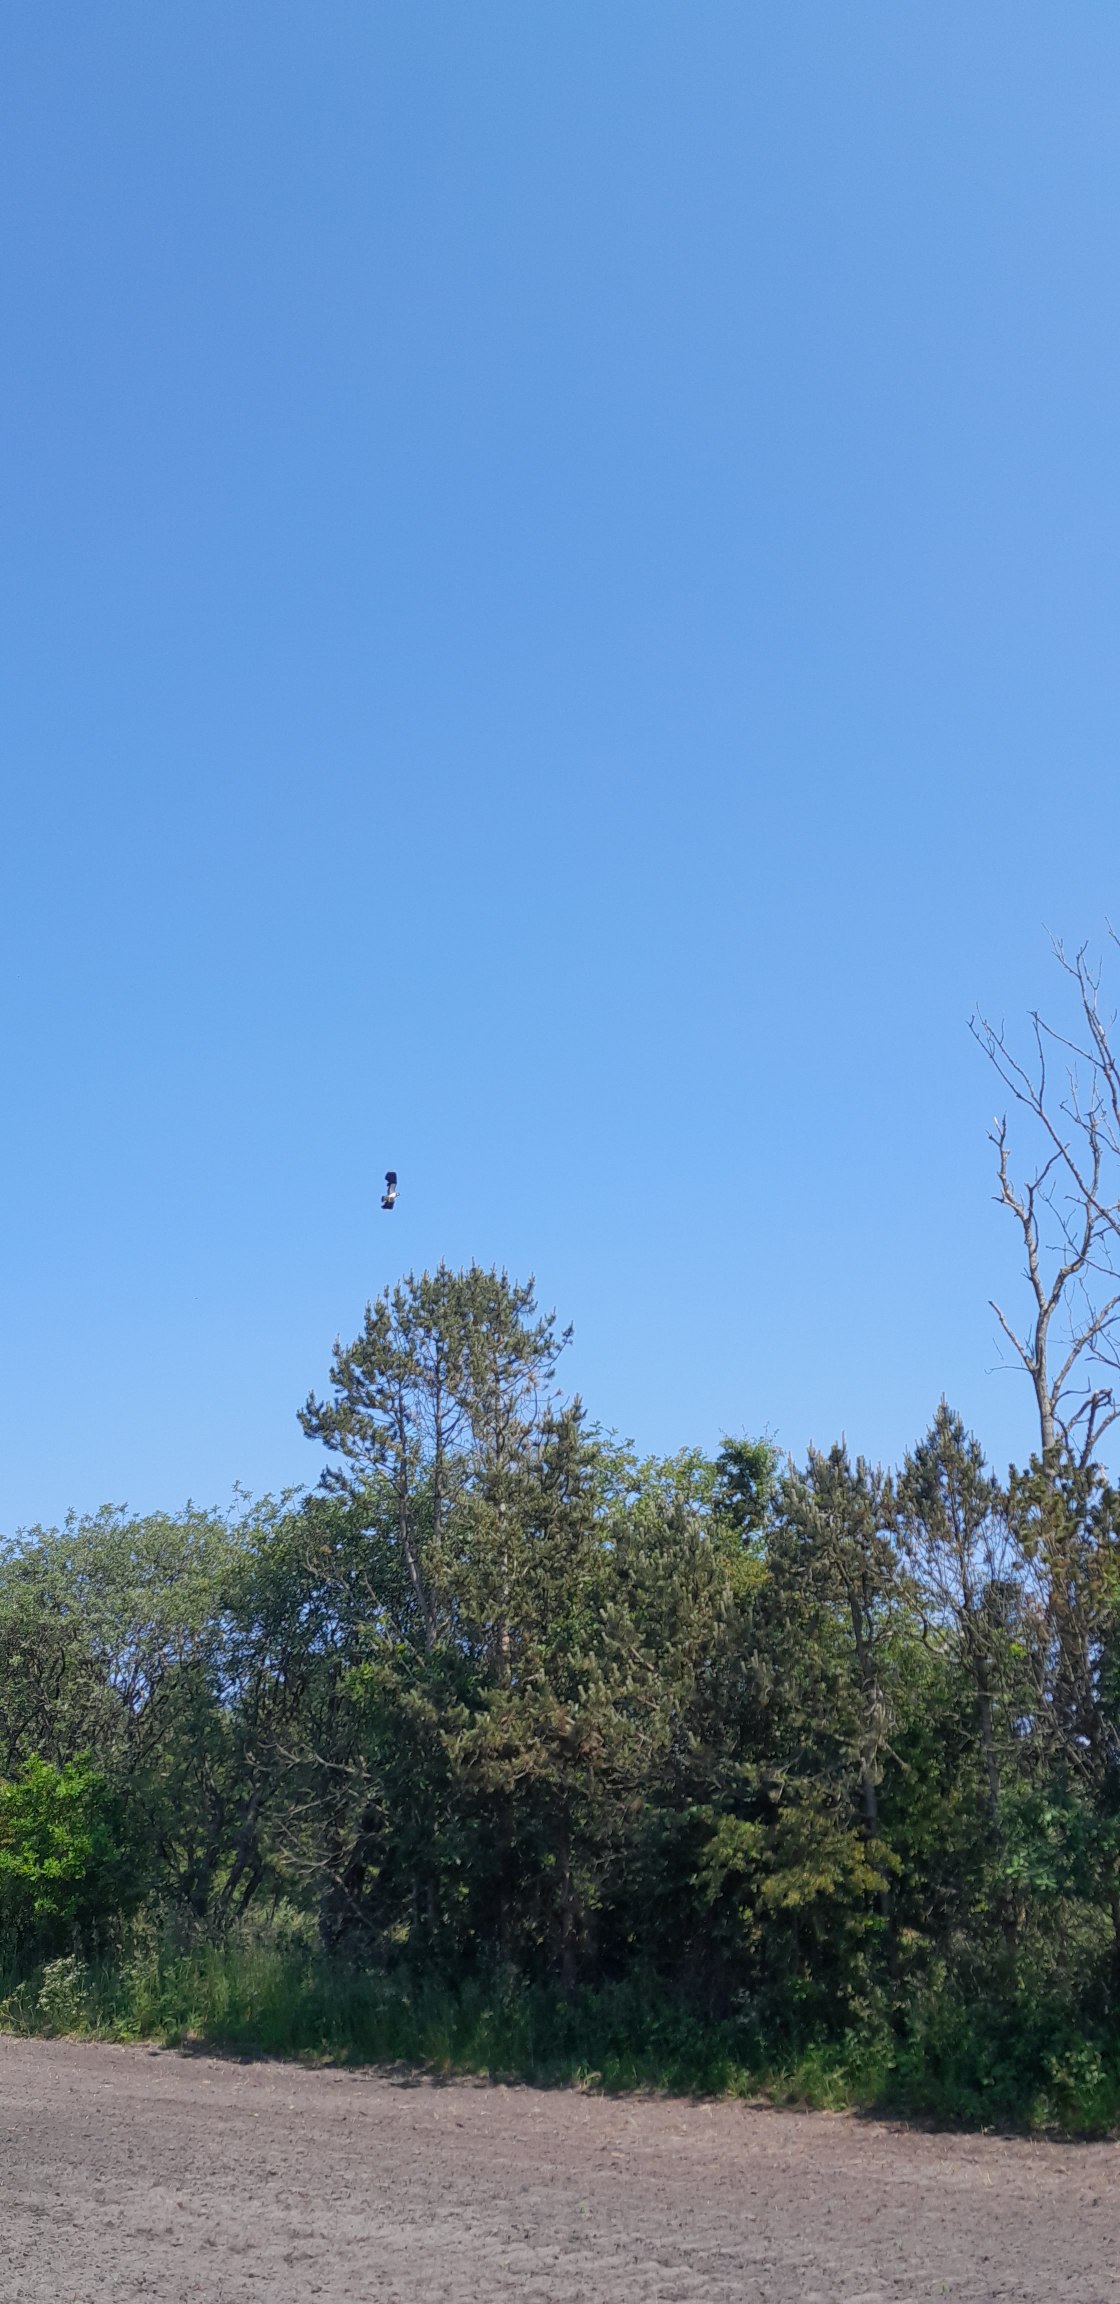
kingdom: Animalia
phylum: Chordata
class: Aves
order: Charadriiformes
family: Charadriidae
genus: Vanellus
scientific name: Vanellus vanellus
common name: Vibe
